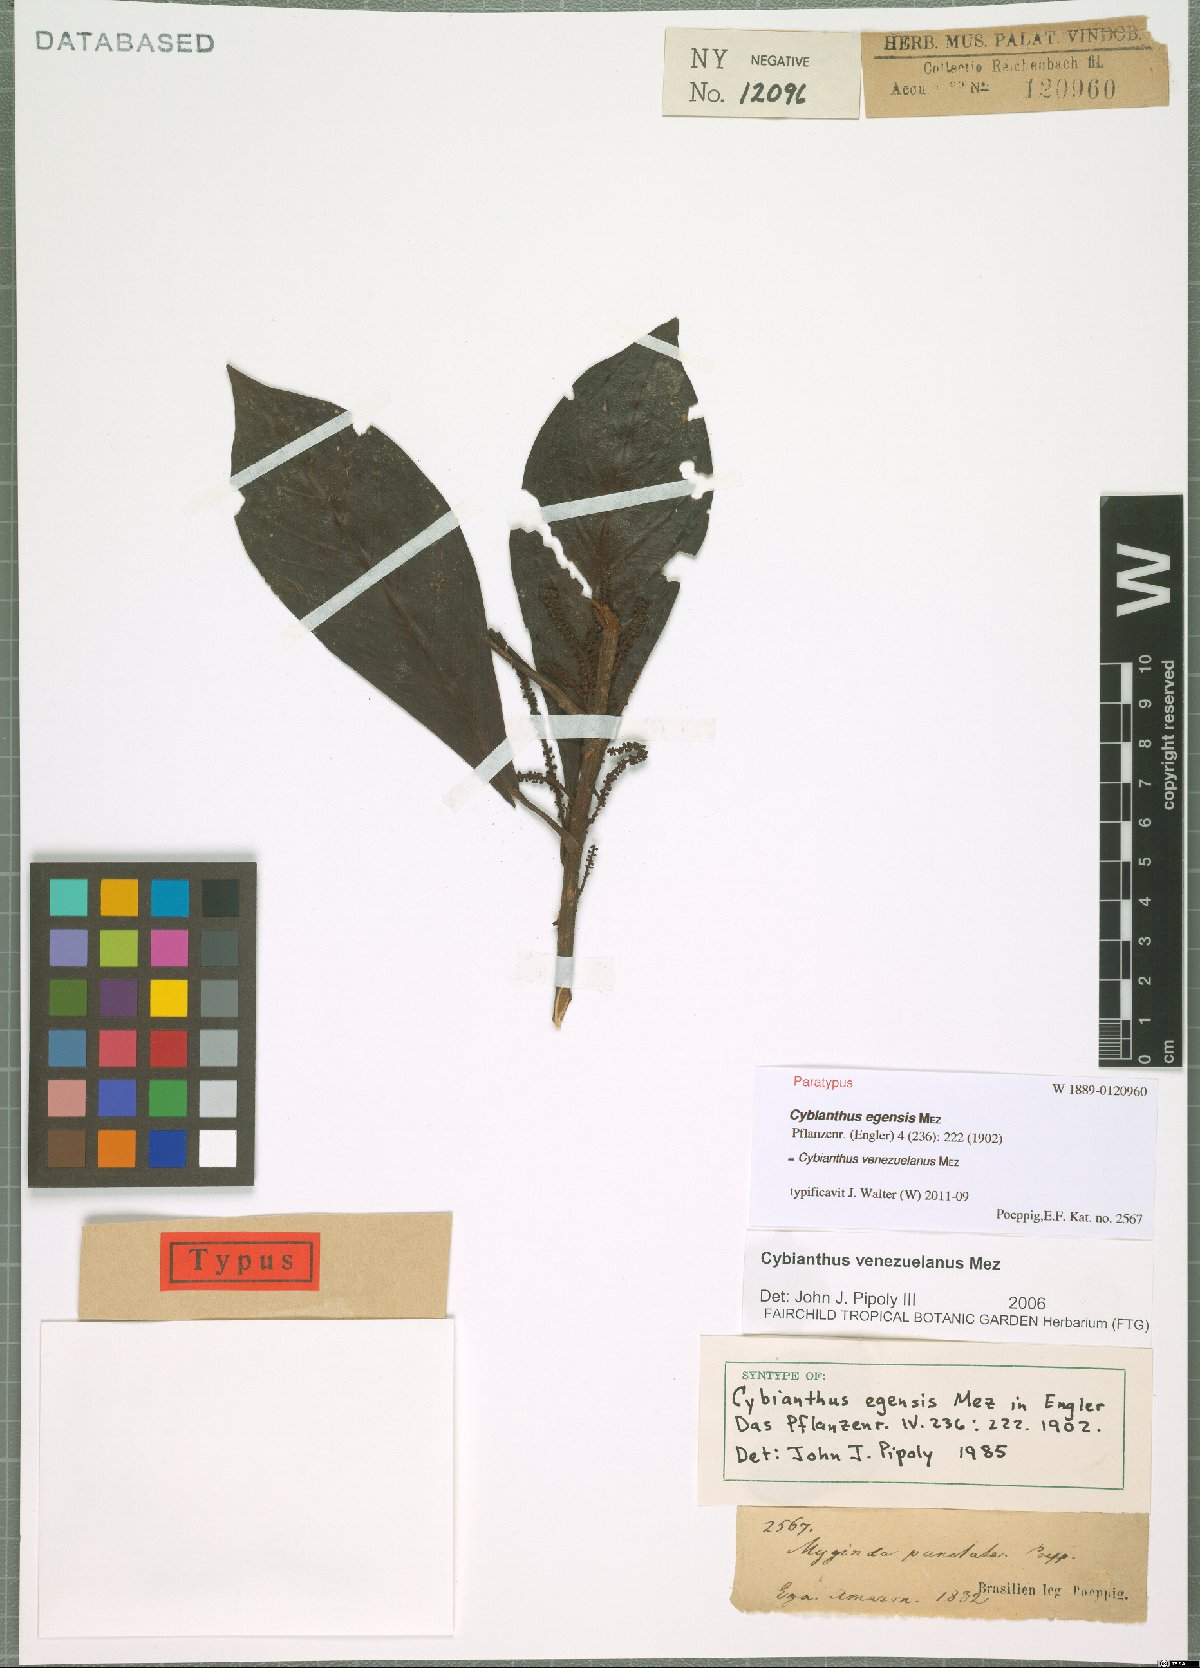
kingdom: Plantae
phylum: Tracheophyta
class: Magnoliopsida
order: Ericales
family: Primulaceae
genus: Cybianthus
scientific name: Cybianthus venezuelanus
